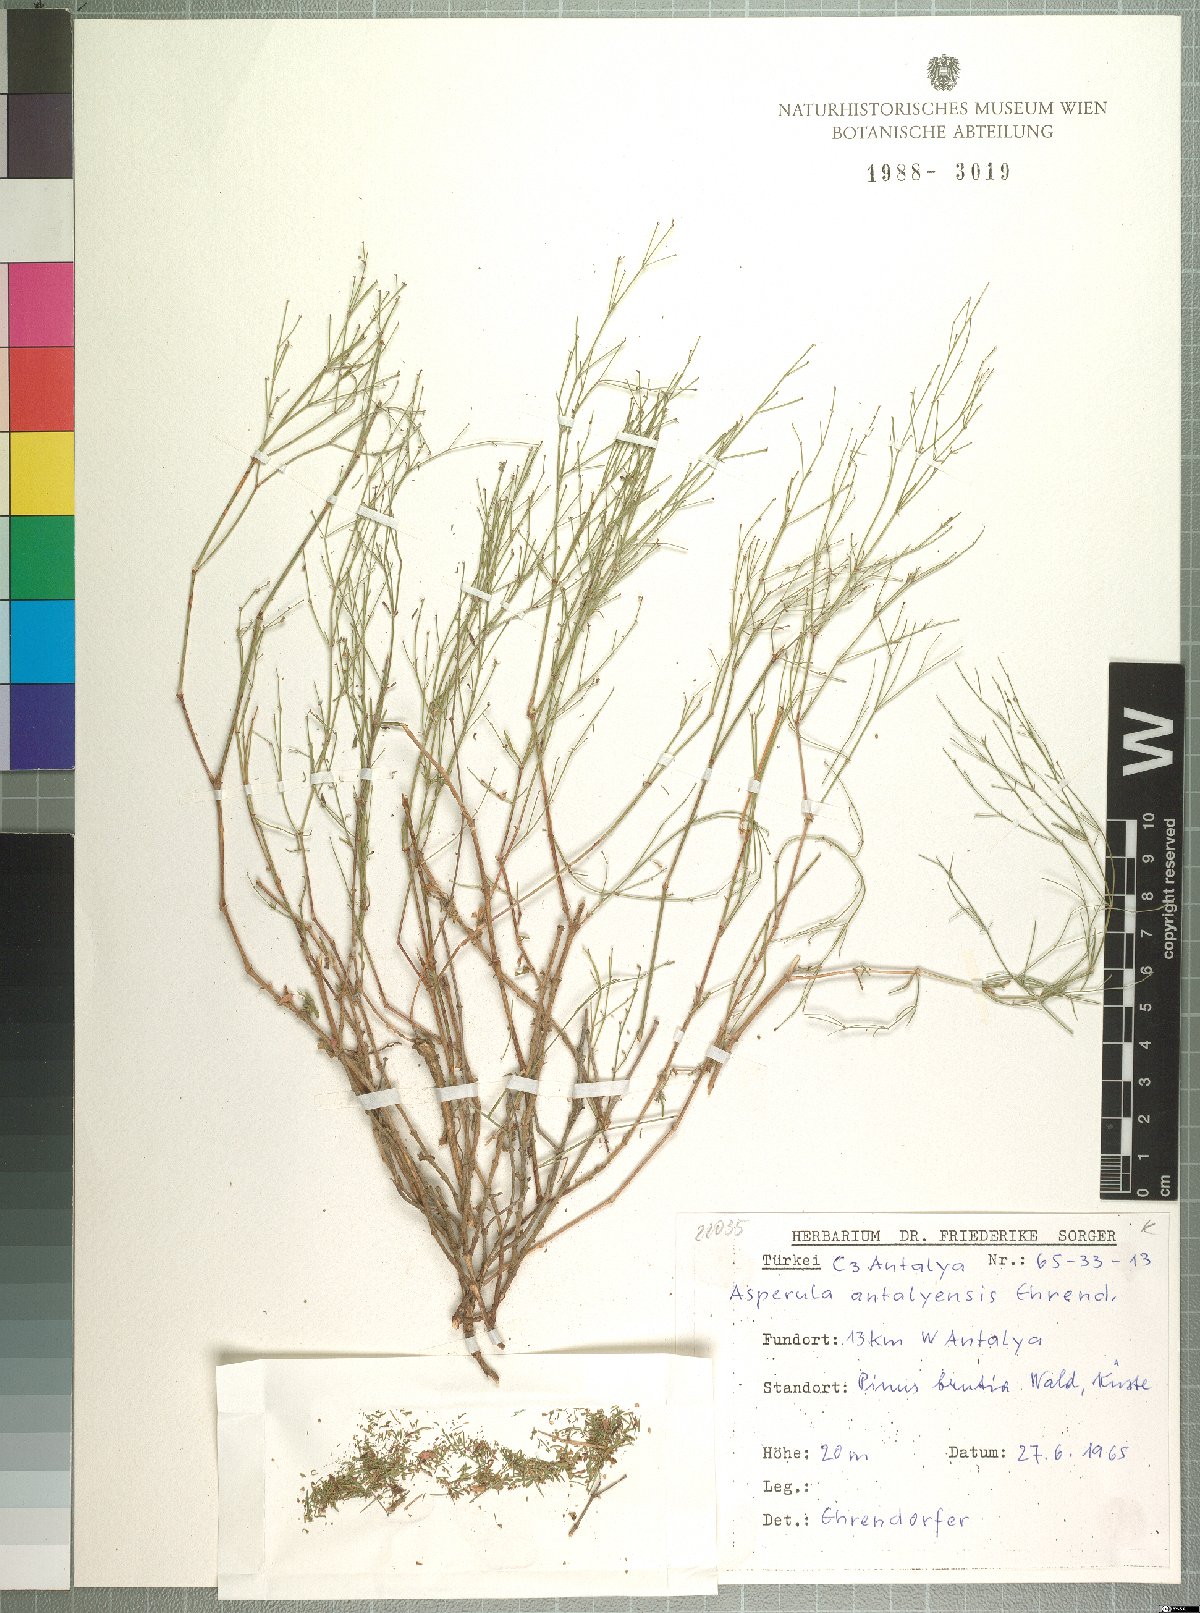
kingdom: Plantae
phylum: Tracheophyta
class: Magnoliopsida
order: Gentianales
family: Rubiaceae
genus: Thliphthisa
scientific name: Thliphthisa antalyensis
